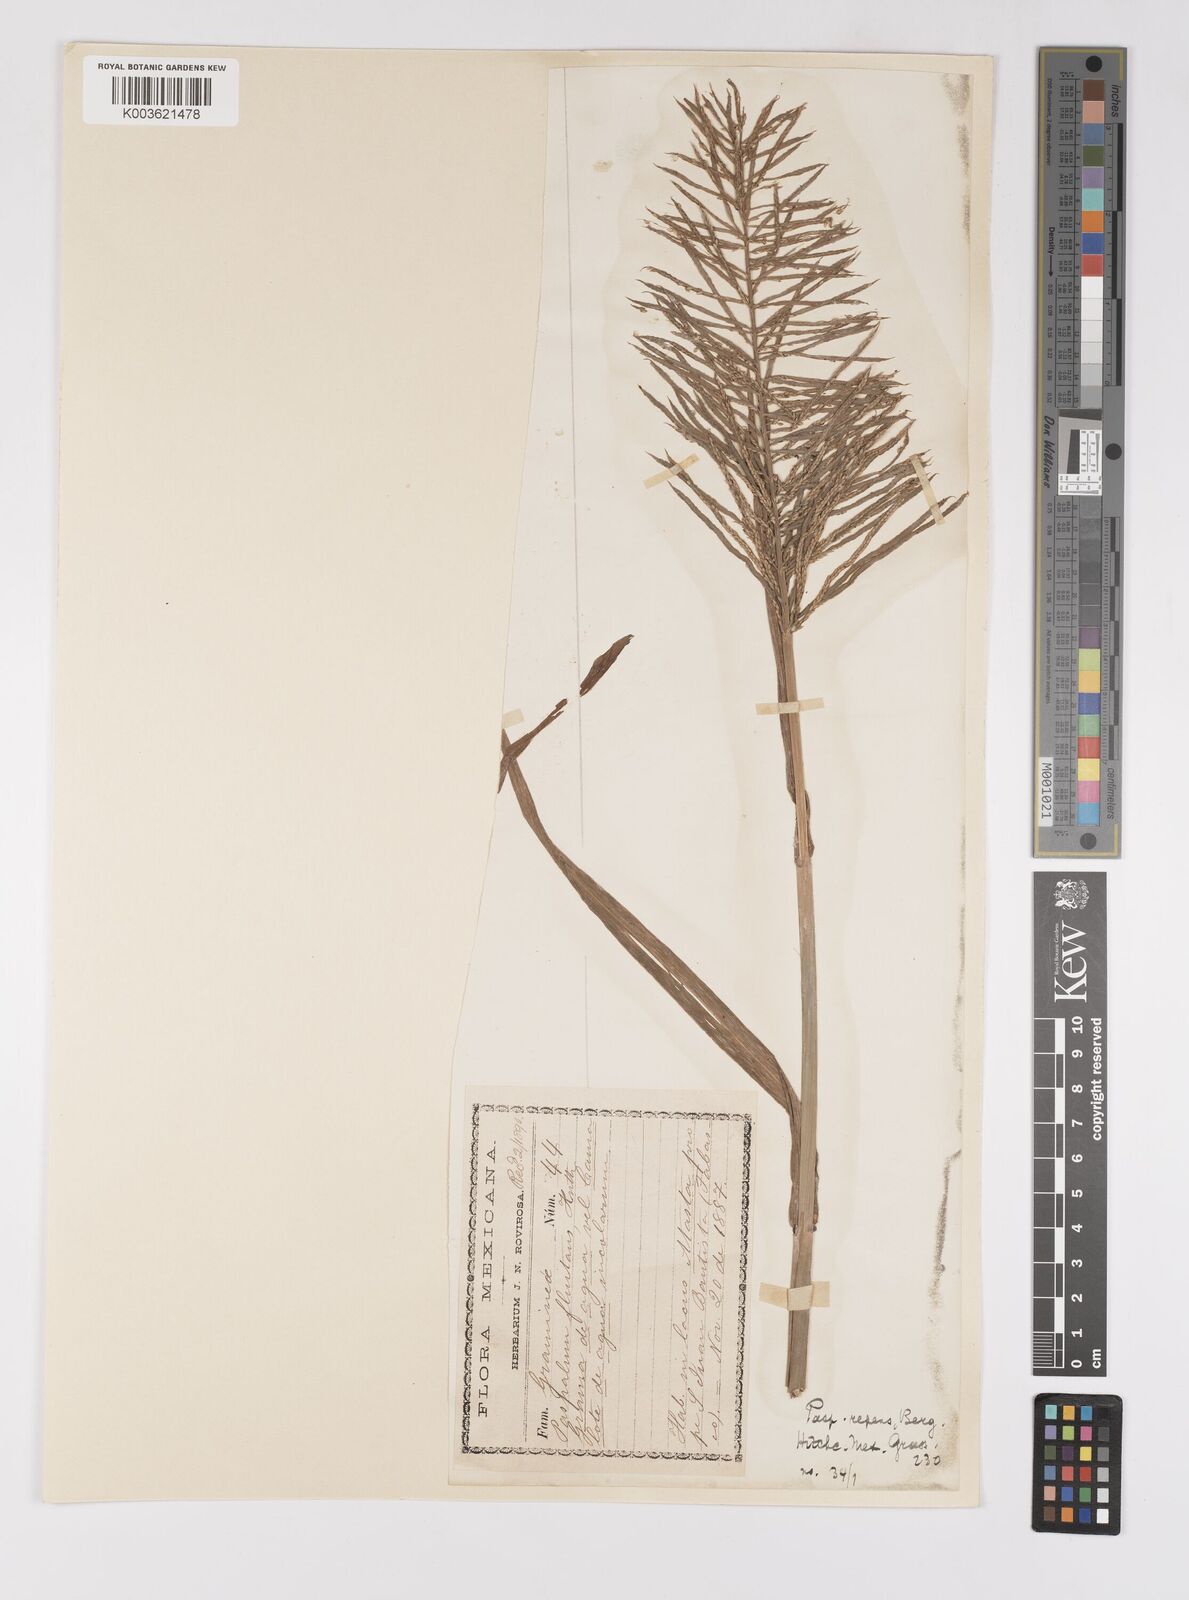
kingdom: Plantae
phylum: Tracheophyta
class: Liliopsida
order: Poales
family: Poaceae
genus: Paspalum
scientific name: Paspalum repens
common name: Water paspalum
